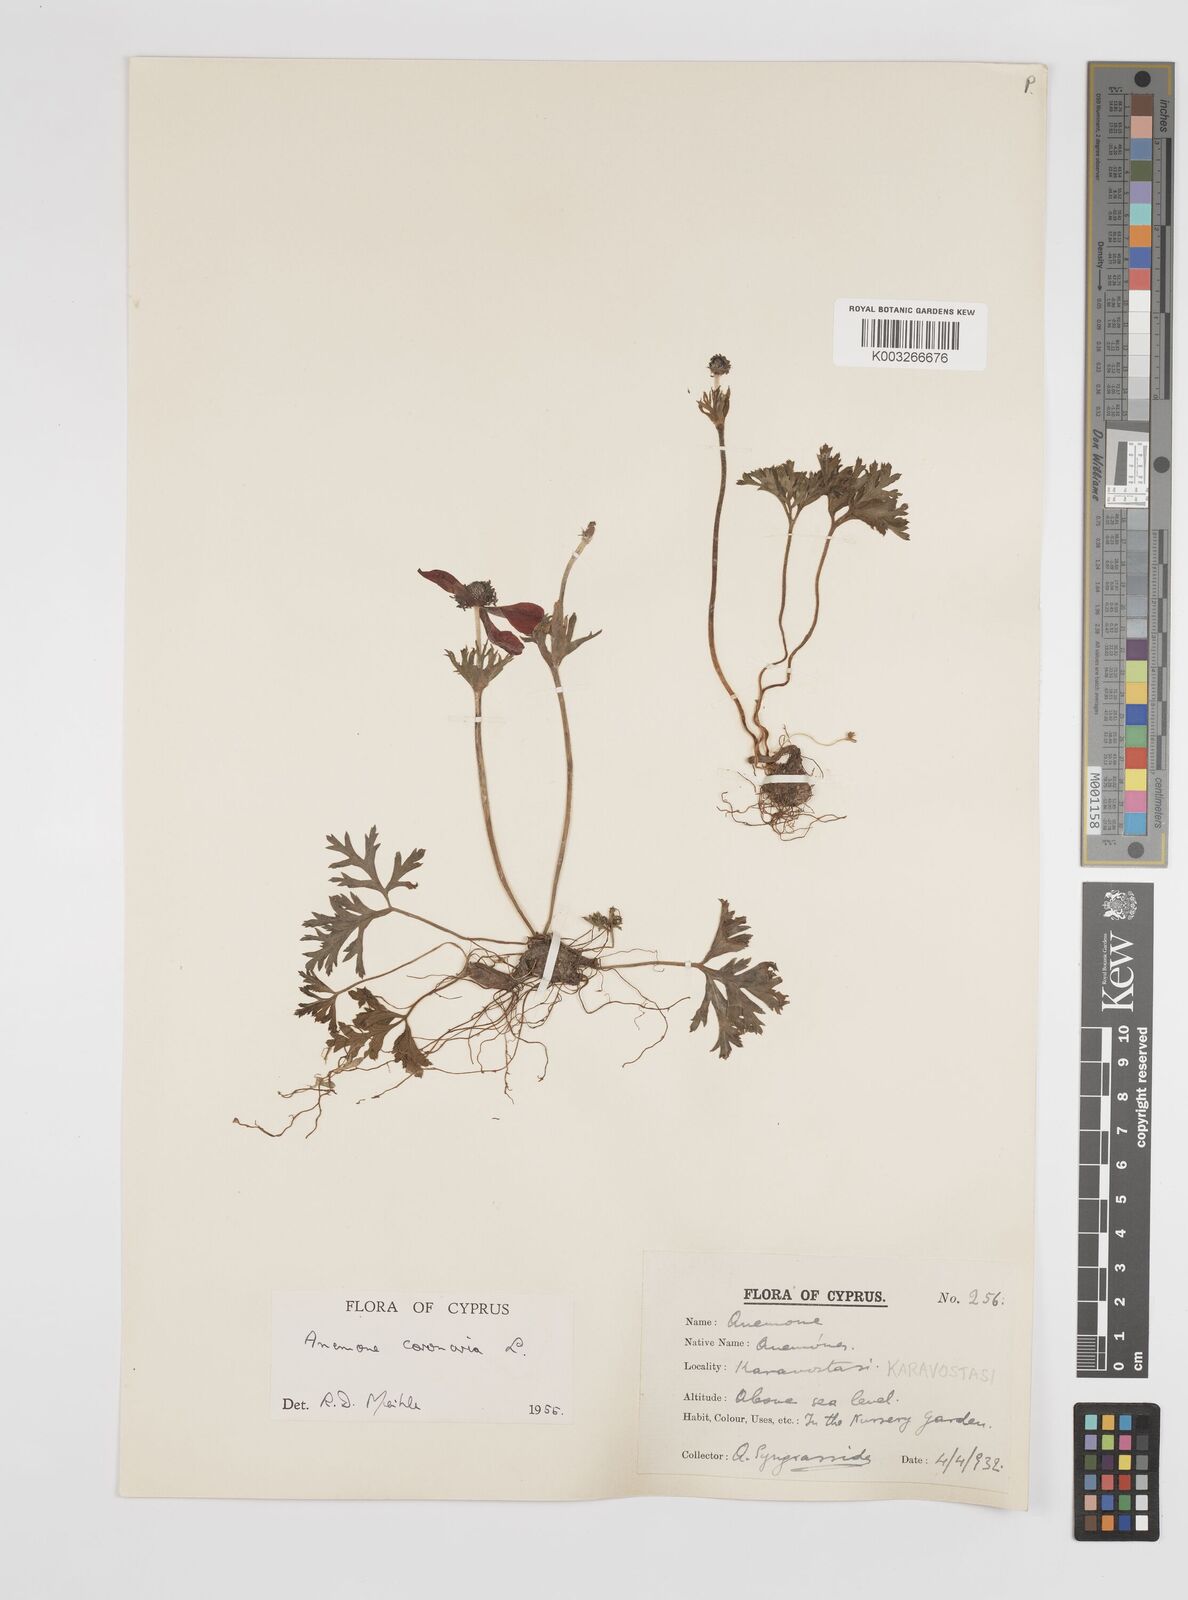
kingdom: Plantae
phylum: Tracheophyta
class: Magnoliopsida
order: Ranunculales
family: Ranunculaceae
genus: Anemone
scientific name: Anemone coronaria
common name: Poppy anemone
